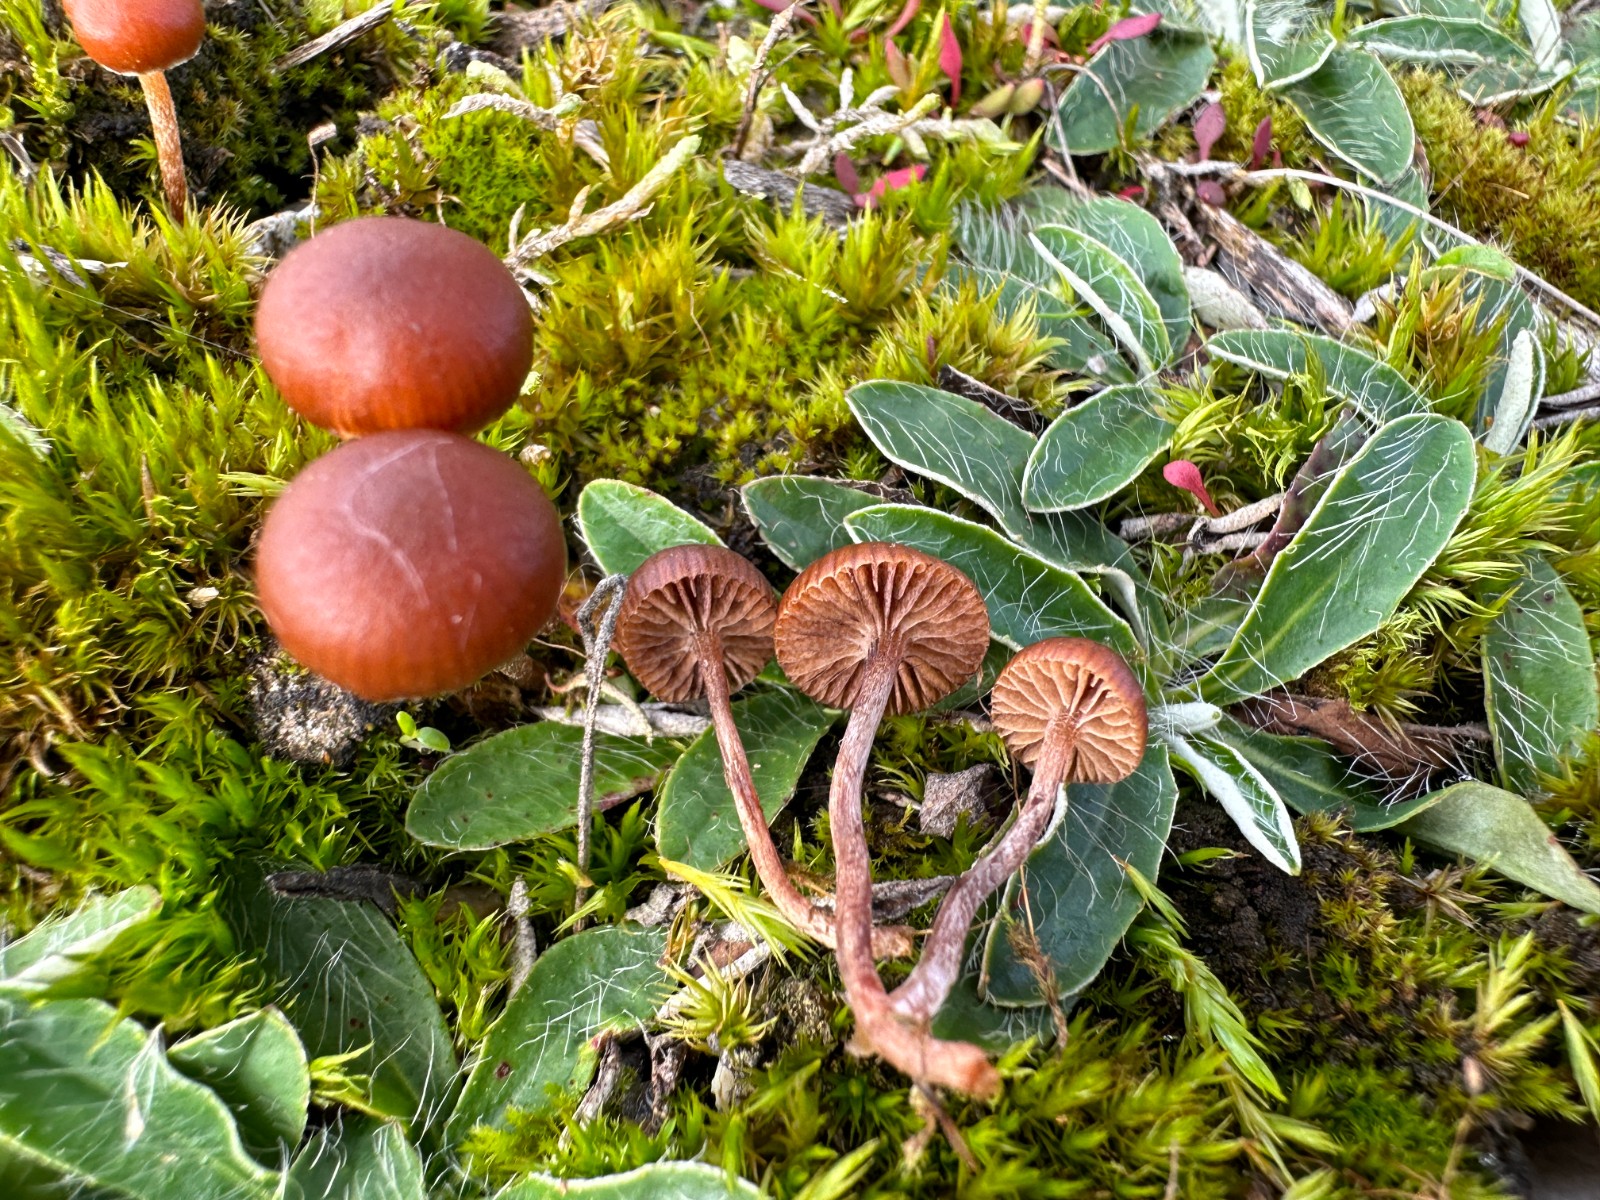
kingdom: Fungi
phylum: Basidiomycota
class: Agaricomycetes
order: Agaricales
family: Strophariaceae
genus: Deconica
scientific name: Deconica montana
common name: rødbrun stråhat
